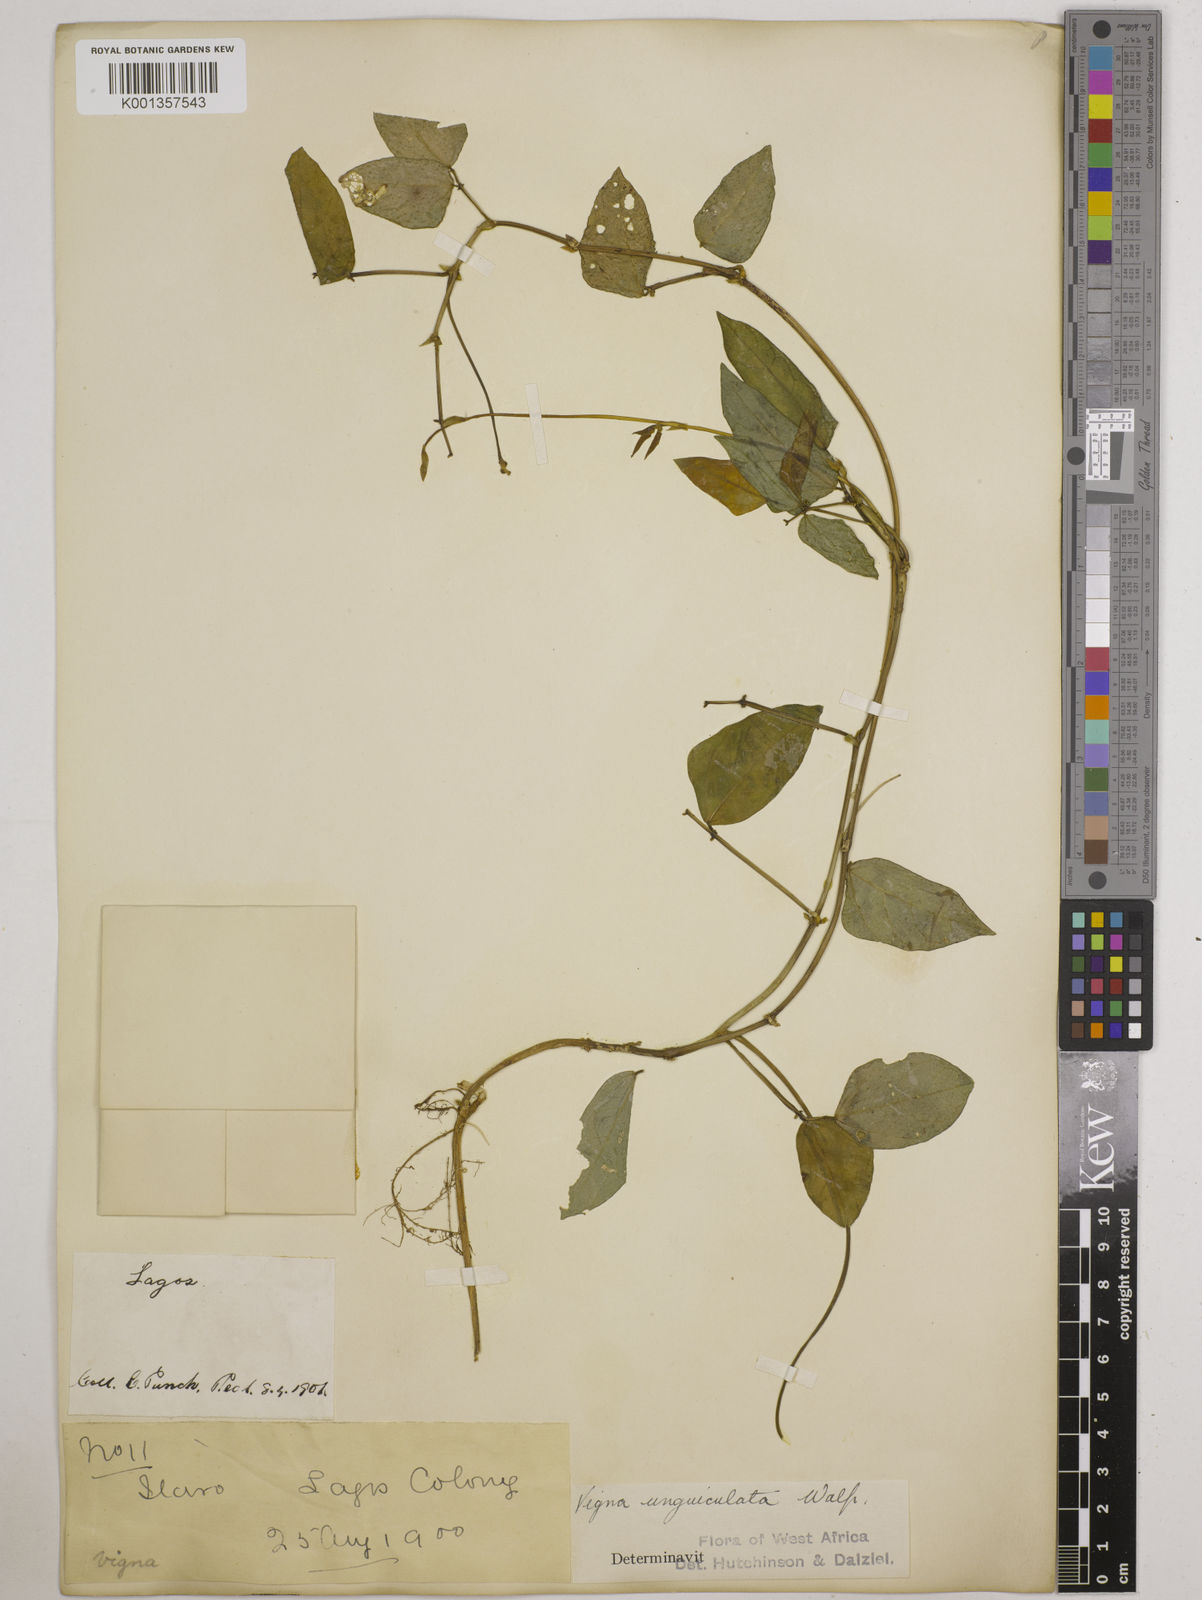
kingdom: Plantae
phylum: Tracheophyta
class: Magnoliopsida
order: Fabales
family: Fabaceae
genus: Vigna
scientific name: Vigna
